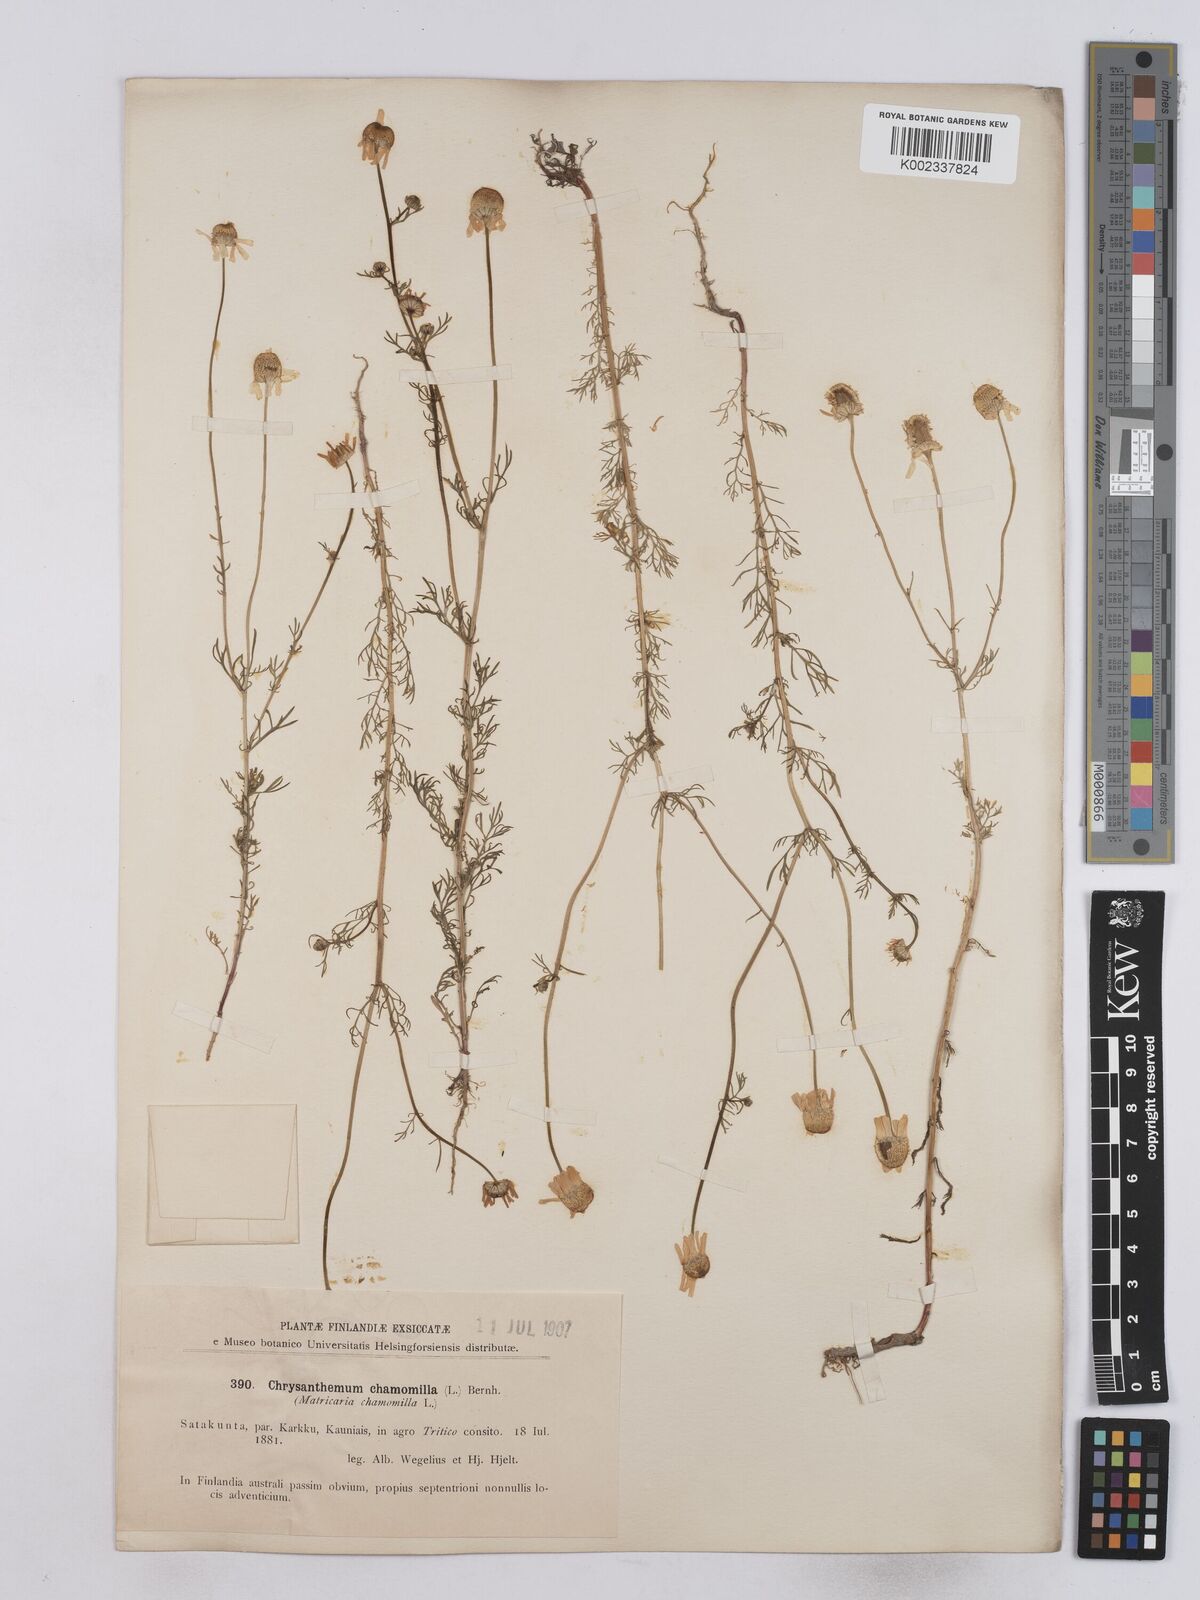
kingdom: Plantae
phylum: Tracheophyta
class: Magnoliopsida
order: Asterales
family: Asteraceae
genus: Matricaria
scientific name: Matricaria chamomilla
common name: Scented mayweed
